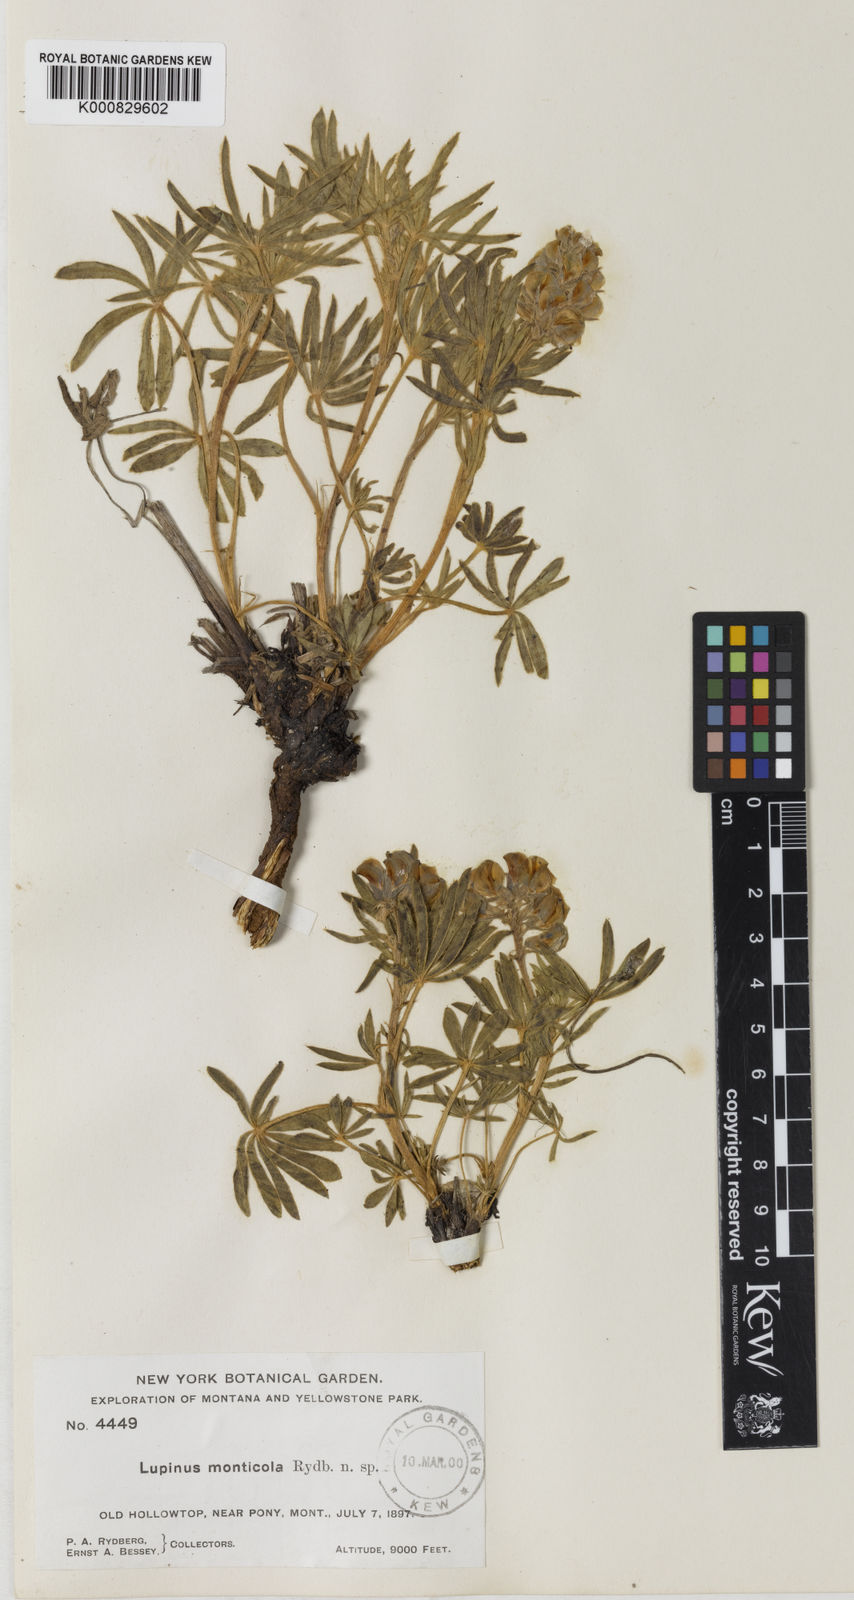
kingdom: Plantae
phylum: Tracheophyta
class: Magnoliopsida
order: Fabales
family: Fabaceae
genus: Lupinus
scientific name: Lupinus monticola
